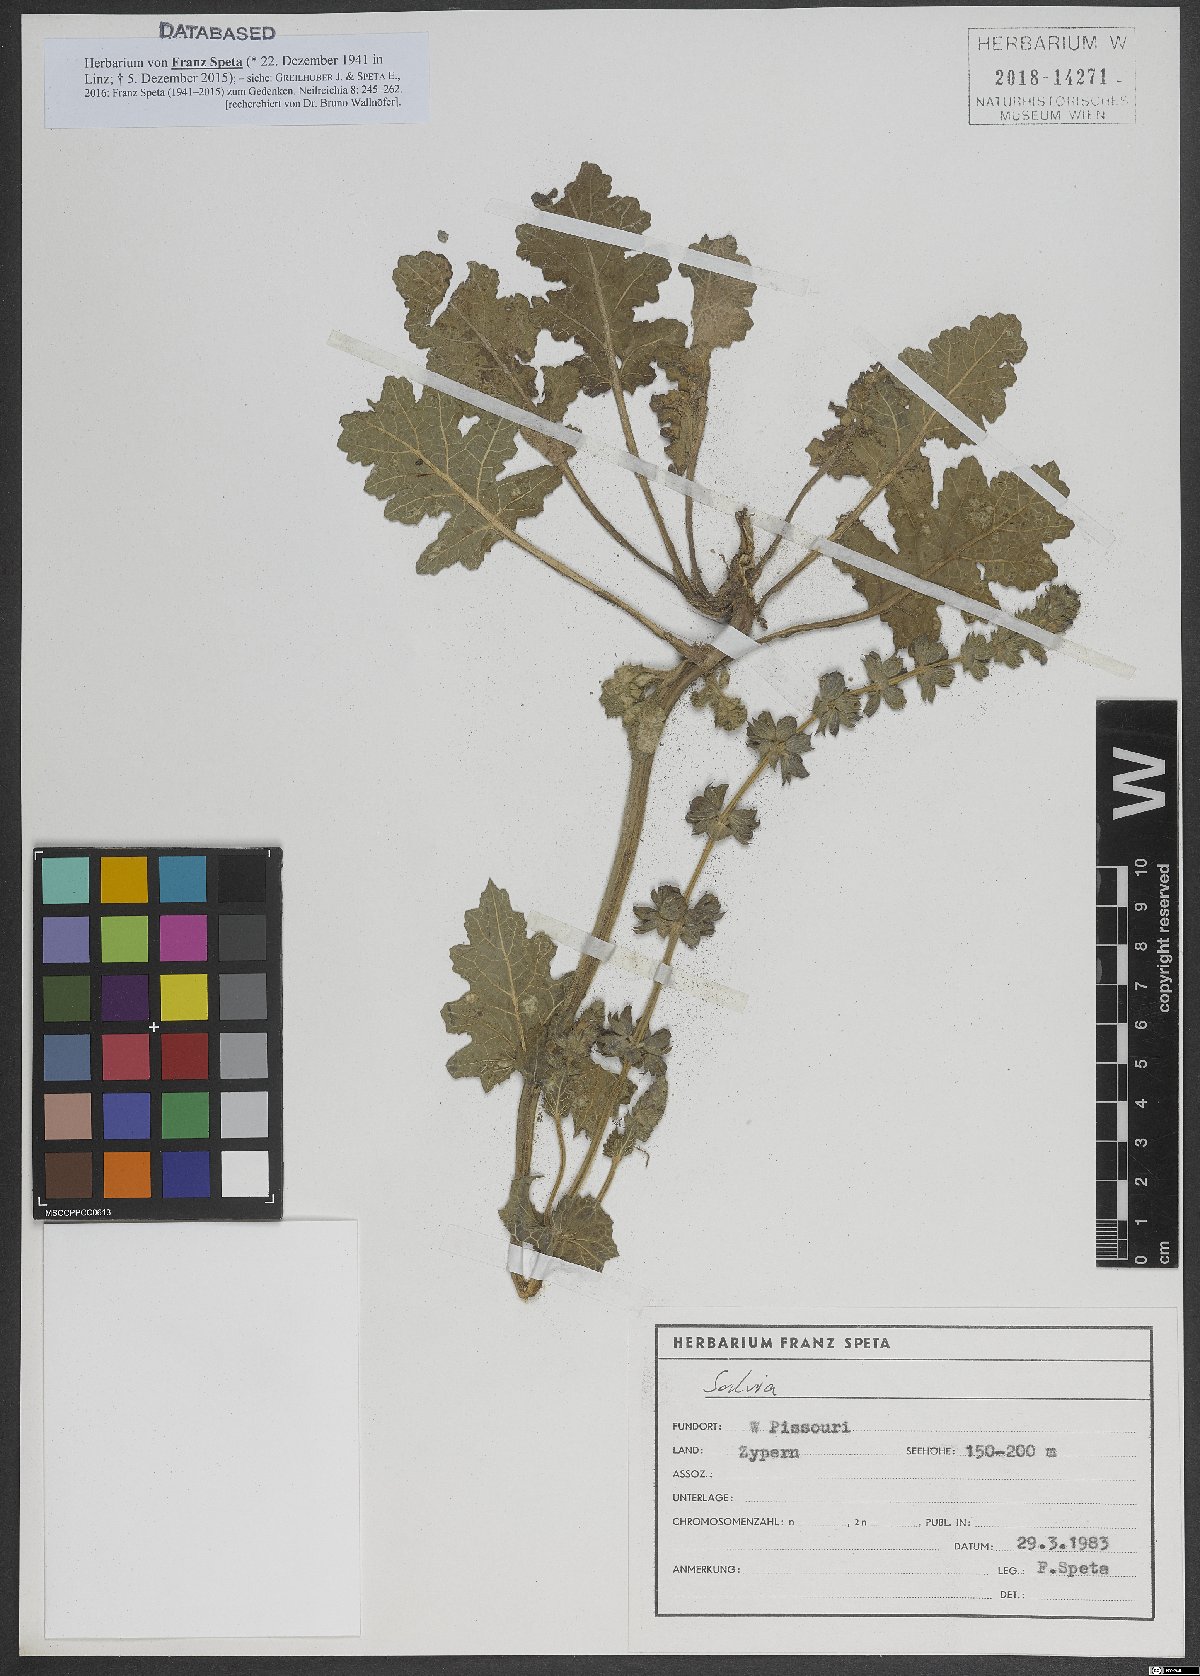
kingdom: Plantae
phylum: Tracheophyta
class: Magnoliopsida
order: Lamiales
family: Lamiaceae
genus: Salvia
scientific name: Salvia
